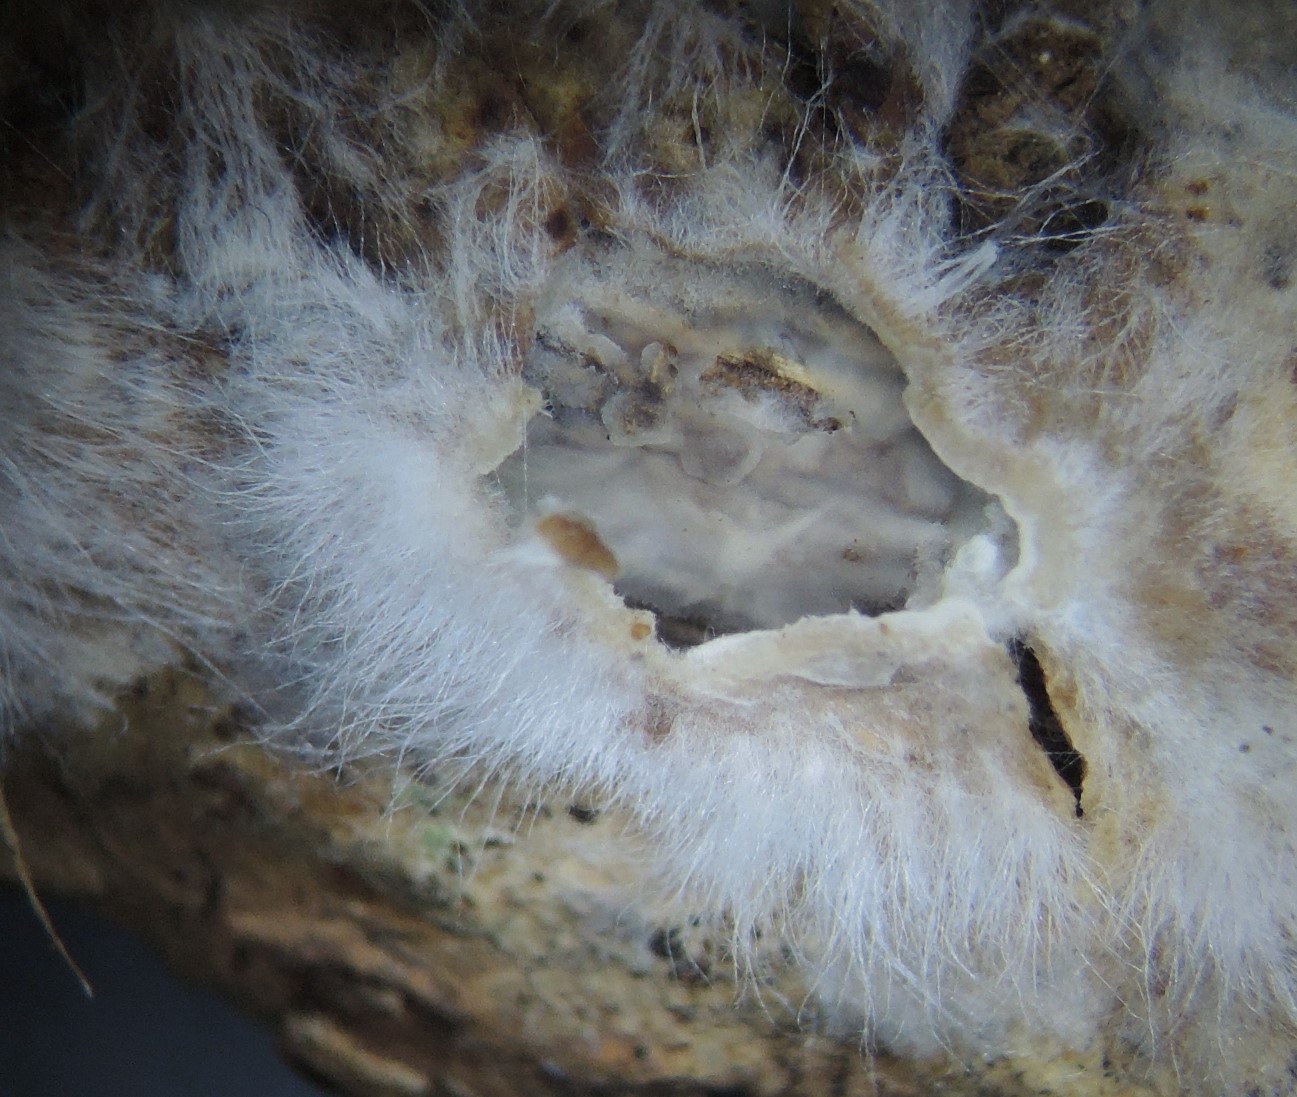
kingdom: Fungi
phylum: Basidiomycota
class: Agaricomycetes
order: Corticiales
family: Corticiaceae
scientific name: Corticiaceae
